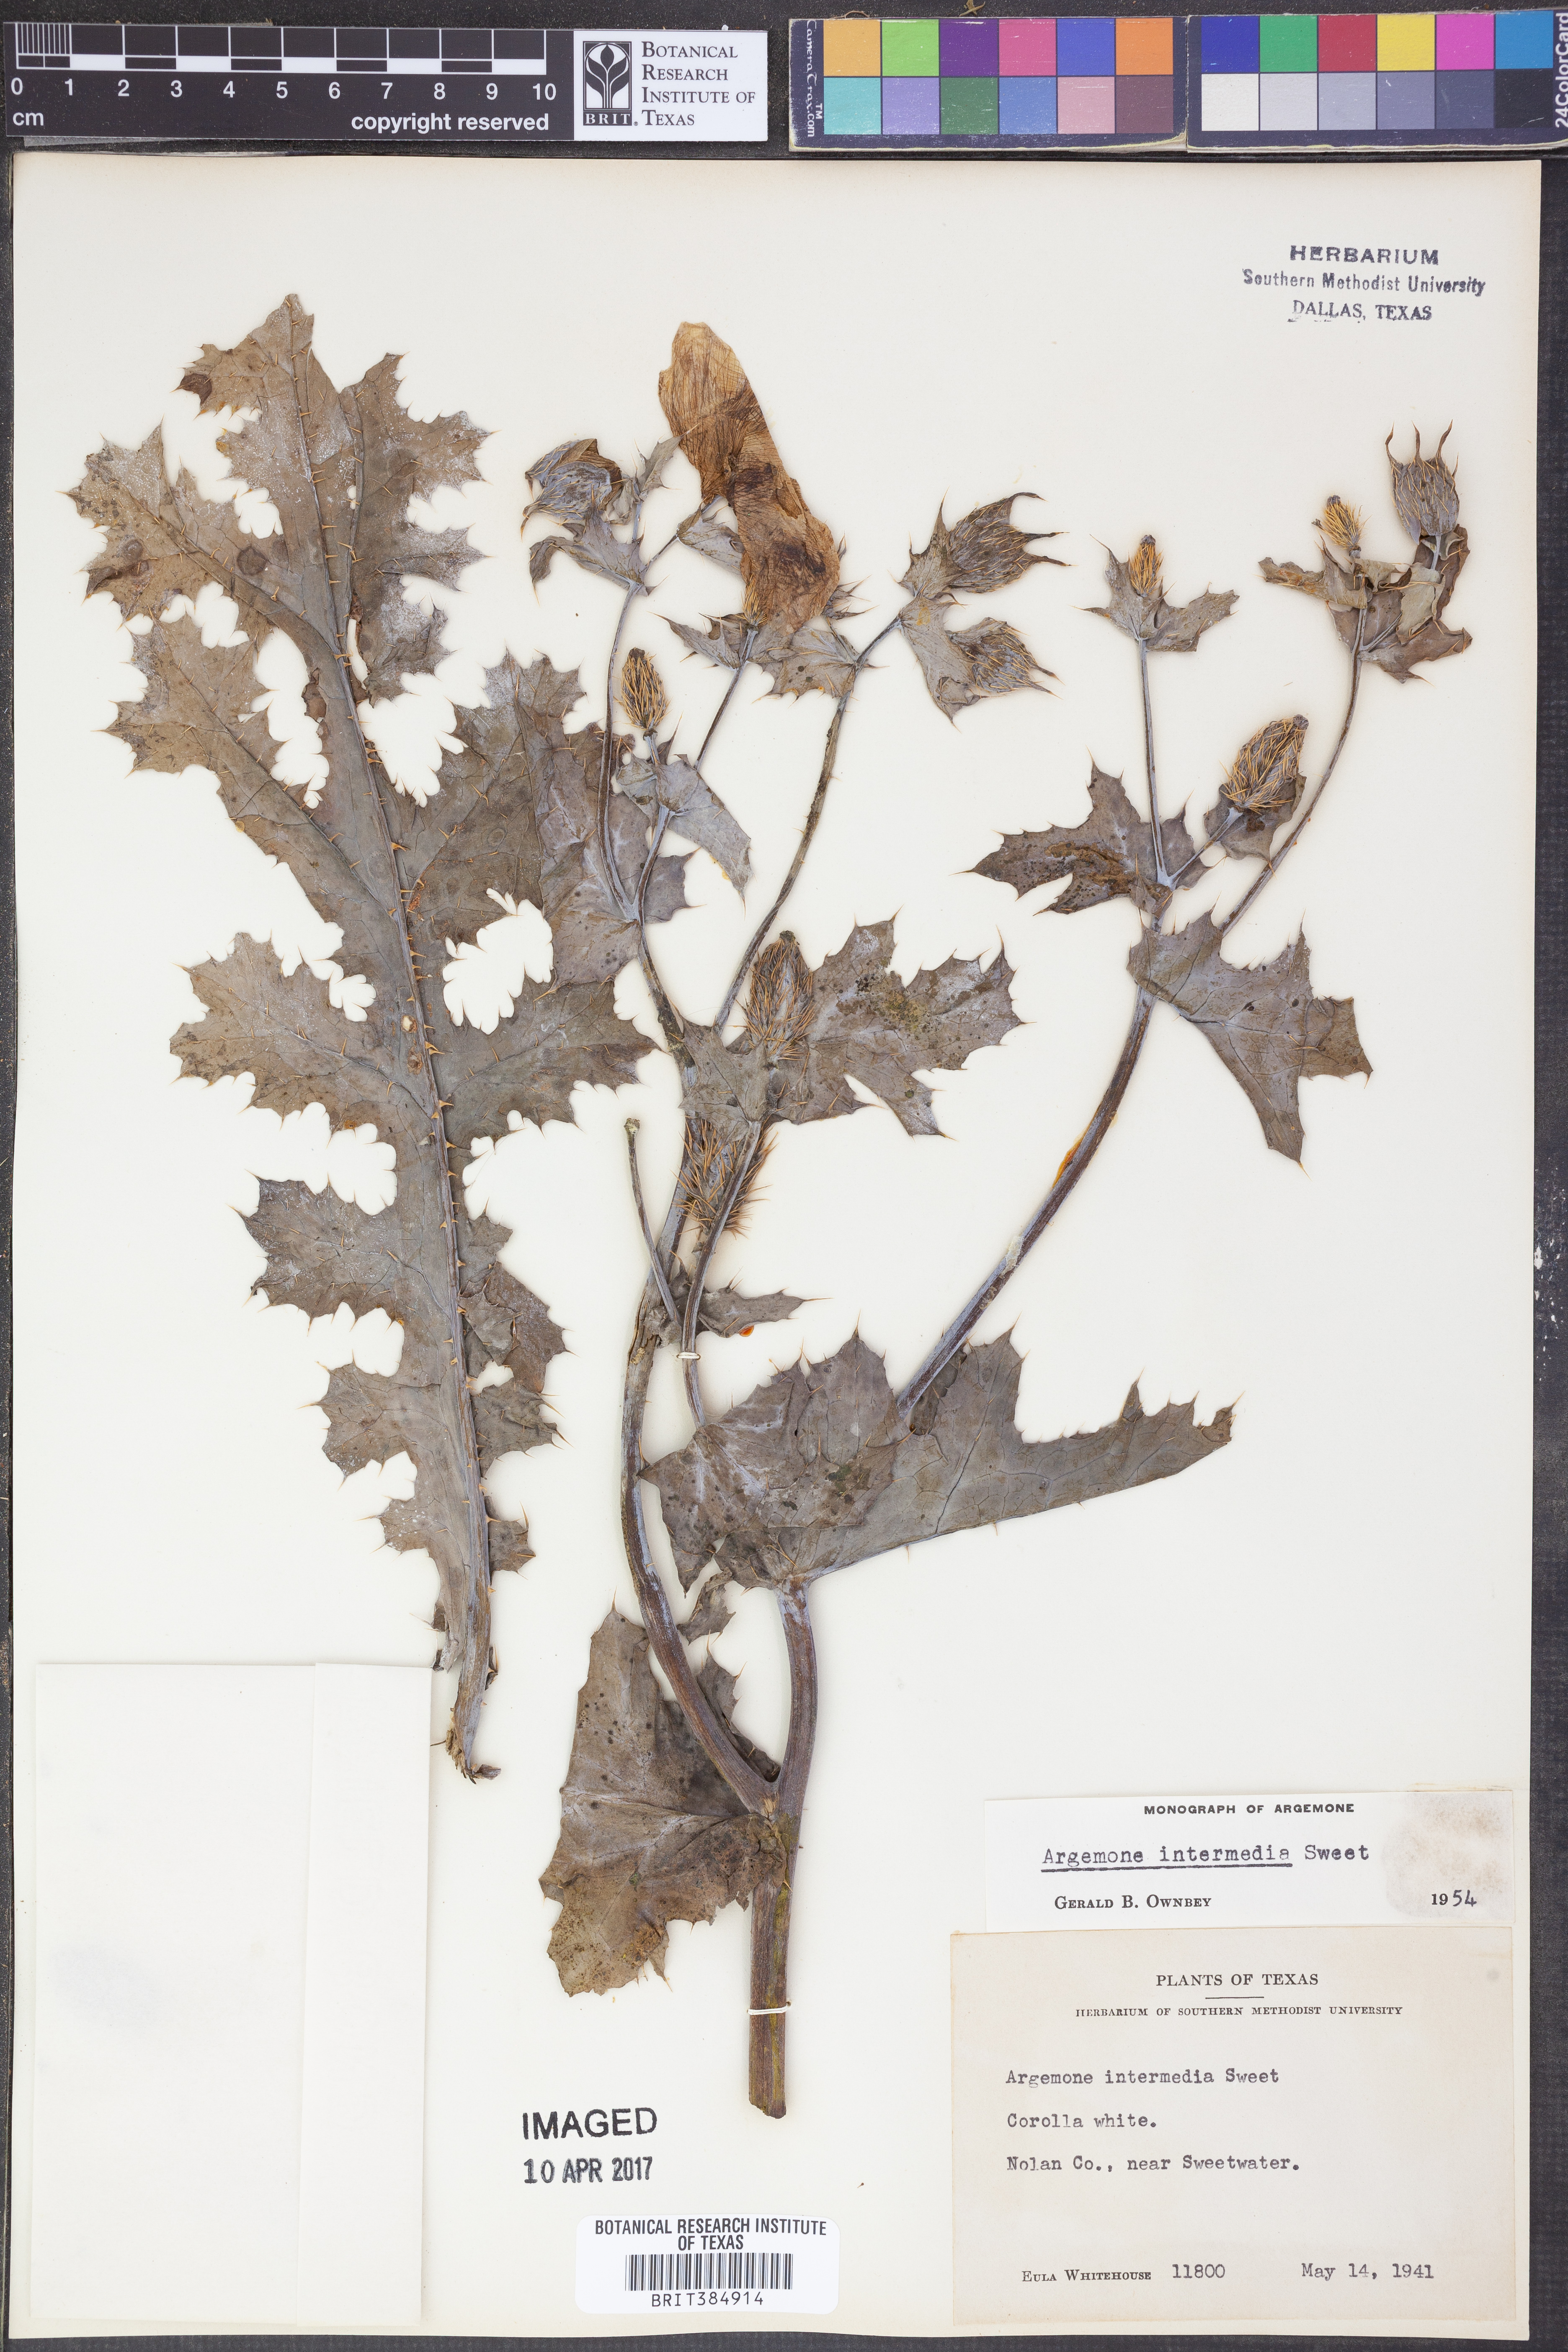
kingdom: Plantae
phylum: Tracheophyta
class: Magnoliopsida
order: Ranunculales
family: Papaveraceae
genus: Argemone
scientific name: Argemone intermedia
